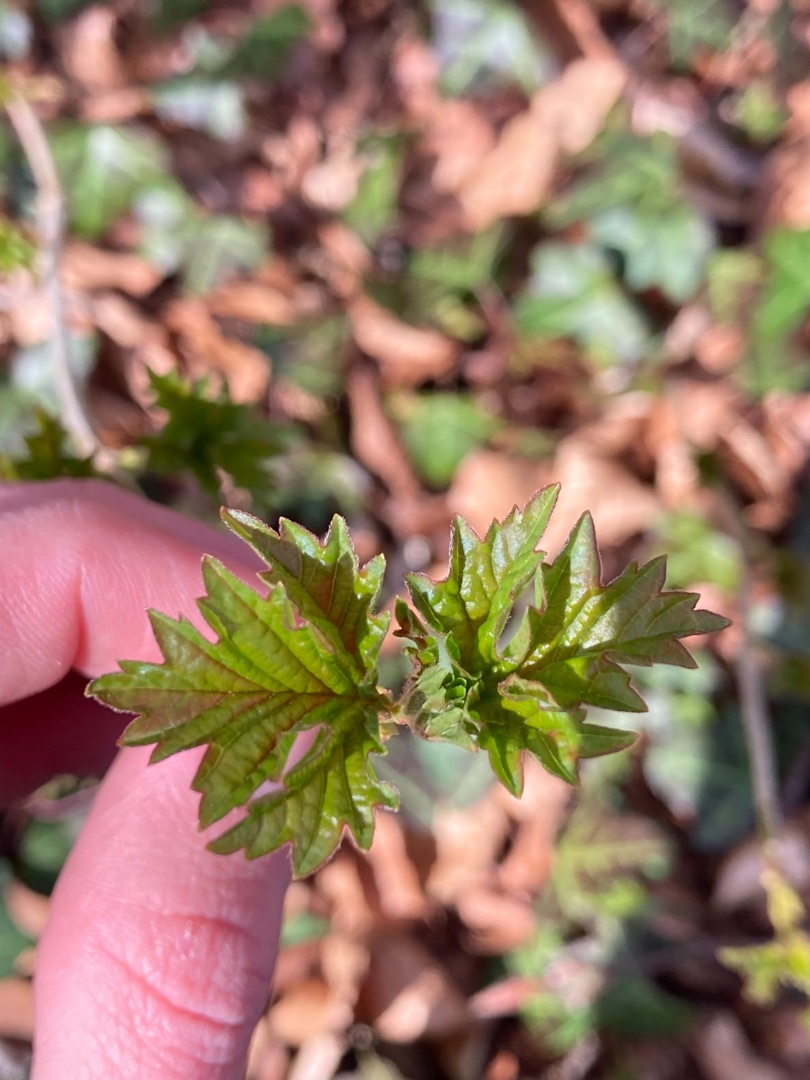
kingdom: Plantae
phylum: Tracheophyta
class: Magnoliopsida
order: Dipsacales
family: Viburnaceae
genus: Viburnum
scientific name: Viburnum opulus
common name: Kvalkved
